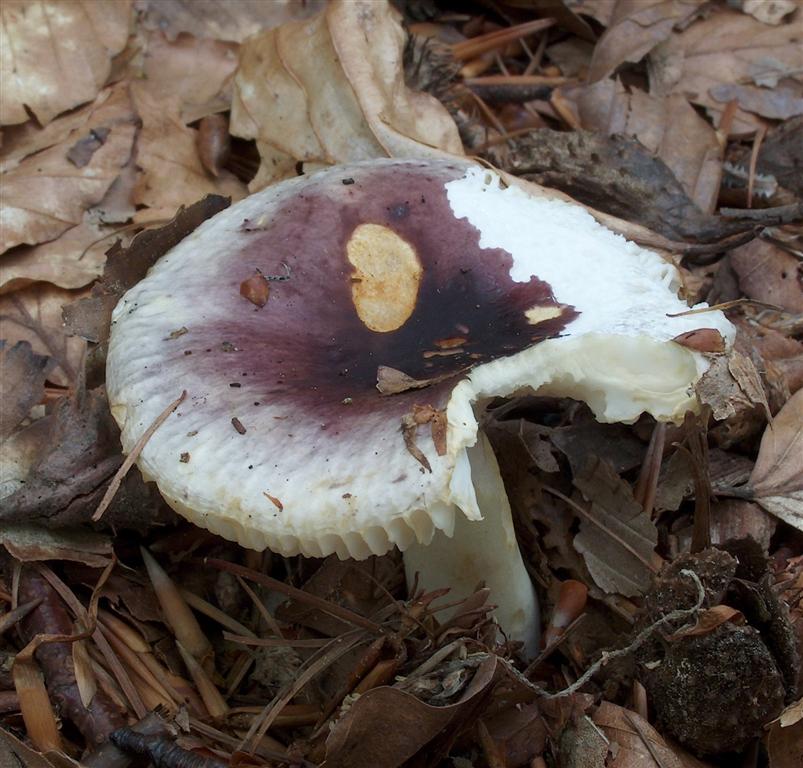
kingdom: Fungi
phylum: Basidiomycota
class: Agaricomycetes
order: Russulales
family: Russulaceae
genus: Russula
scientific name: Russula
